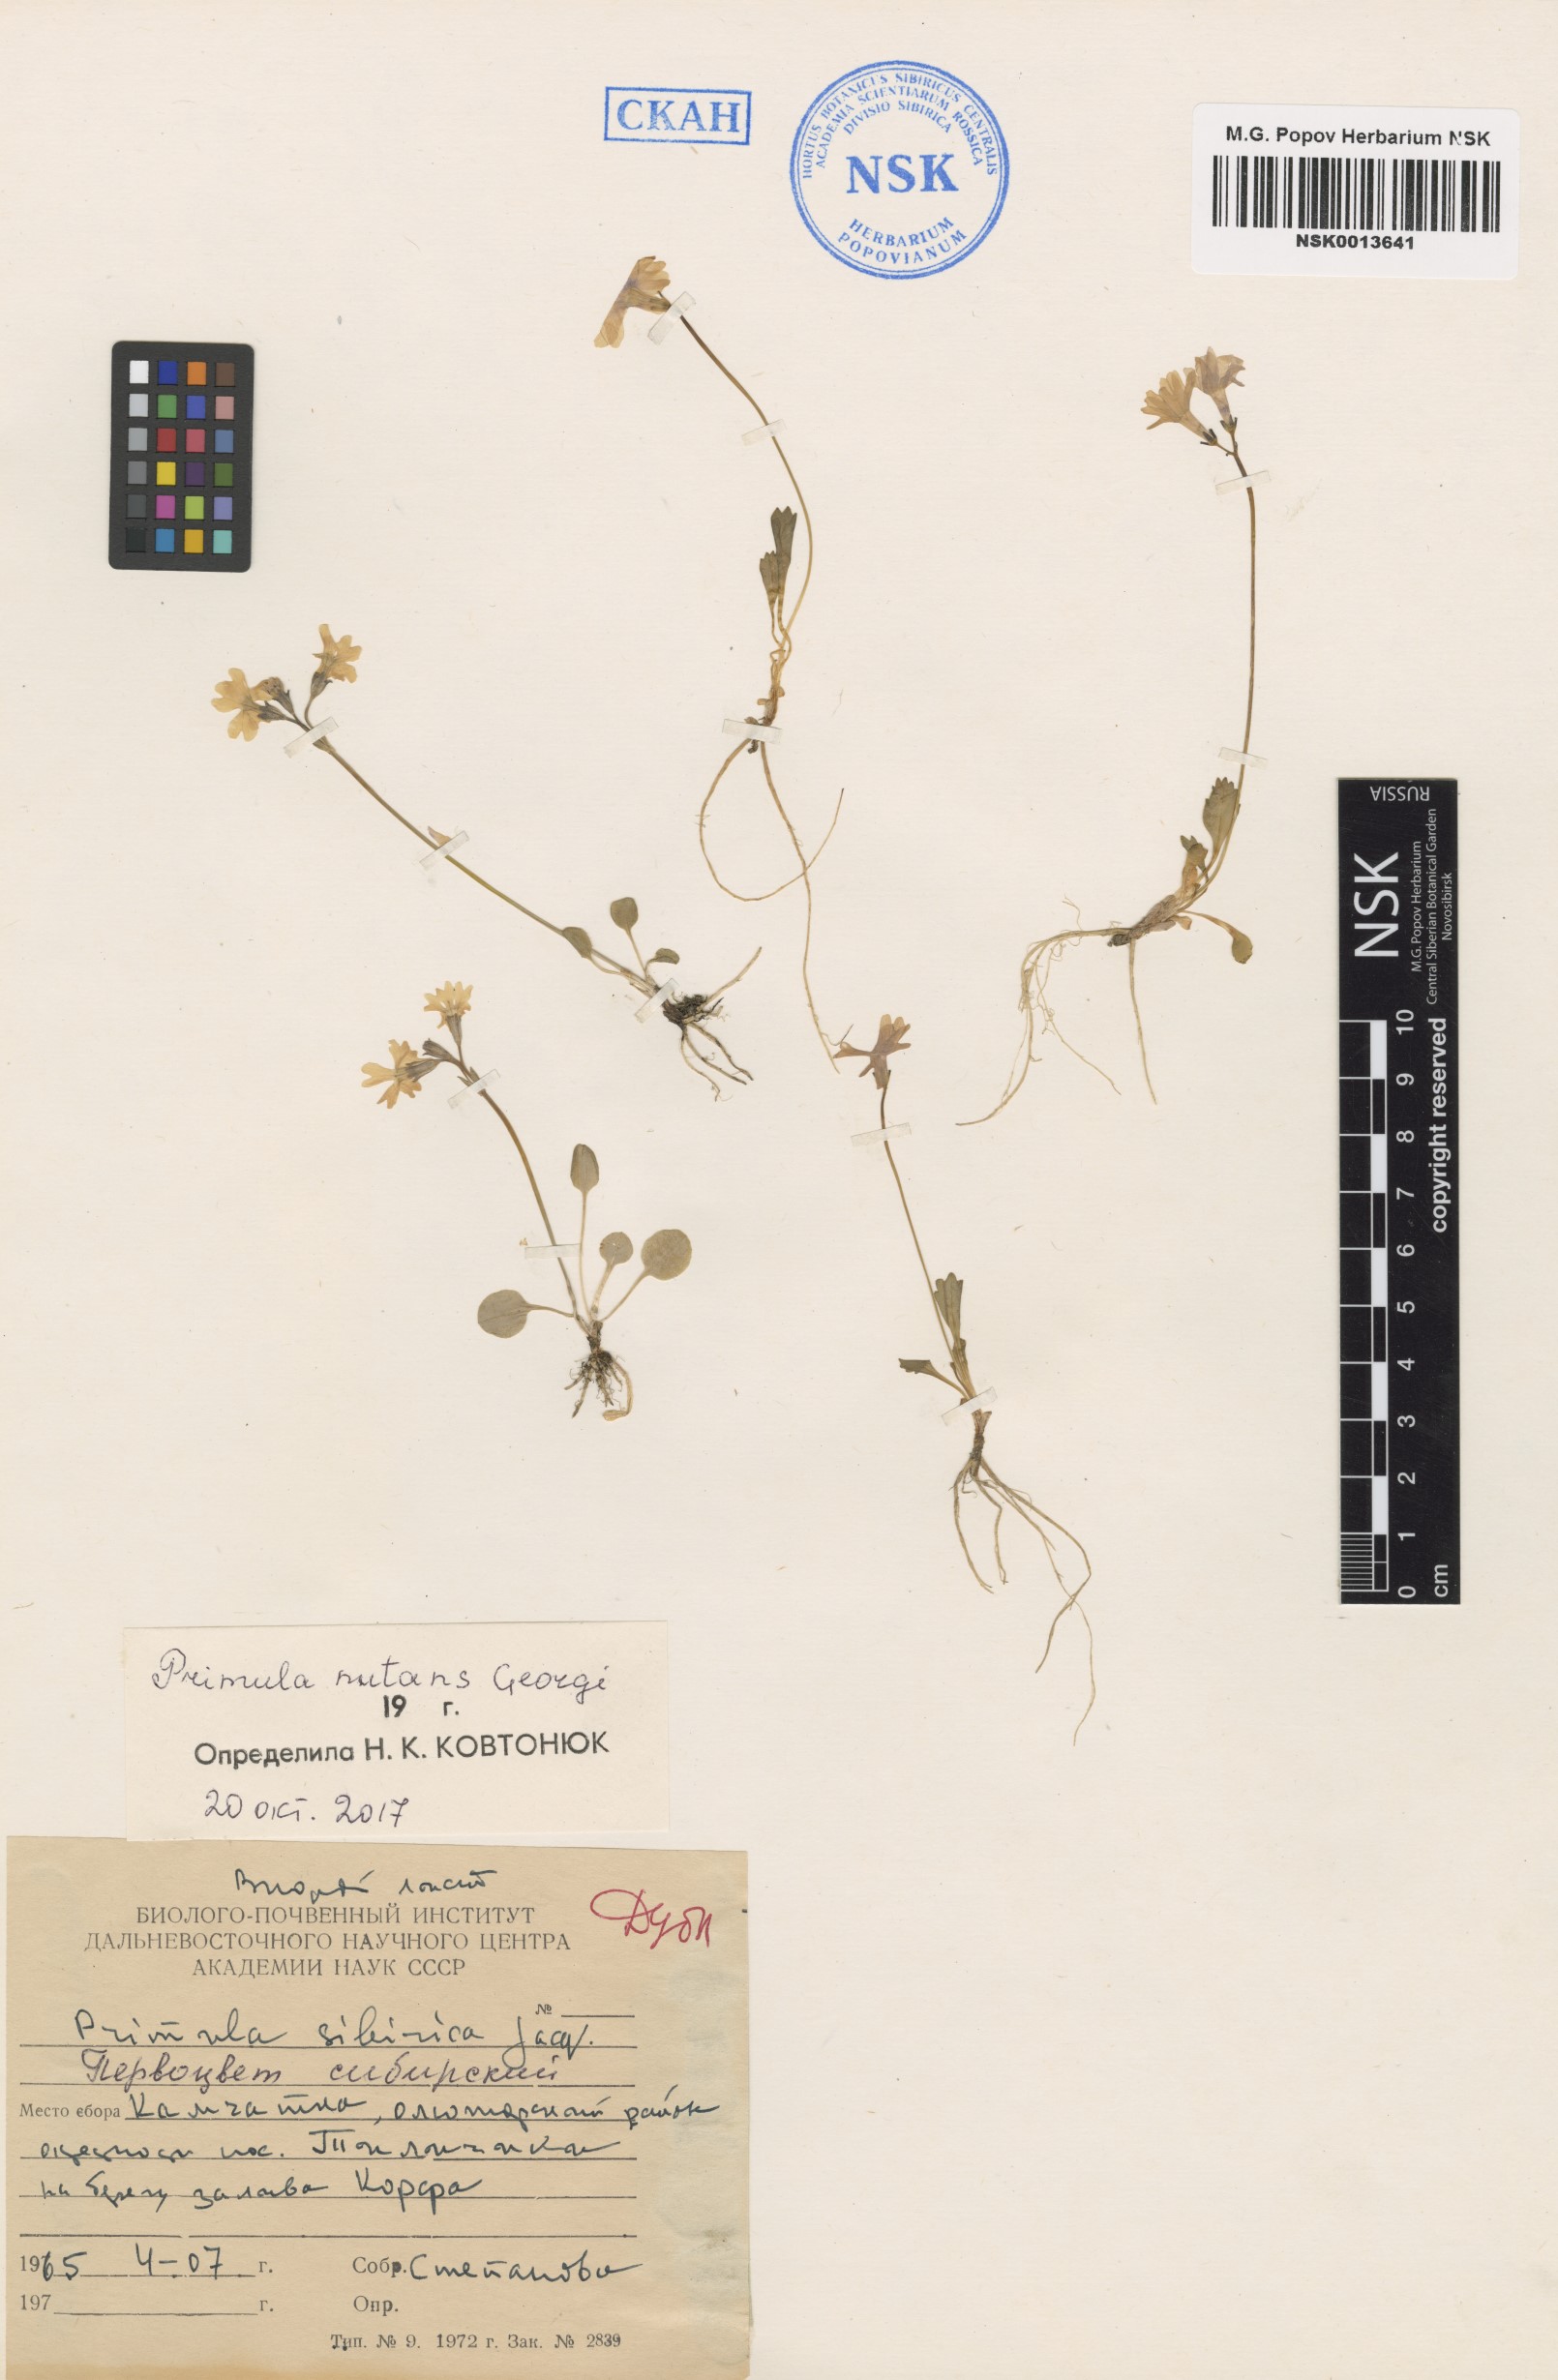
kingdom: Plantae
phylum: Tracheophyta
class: Magnoliopsida
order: Ericales
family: Primulaceae
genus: Primula
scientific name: Primula nutans
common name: Siberian primrose
